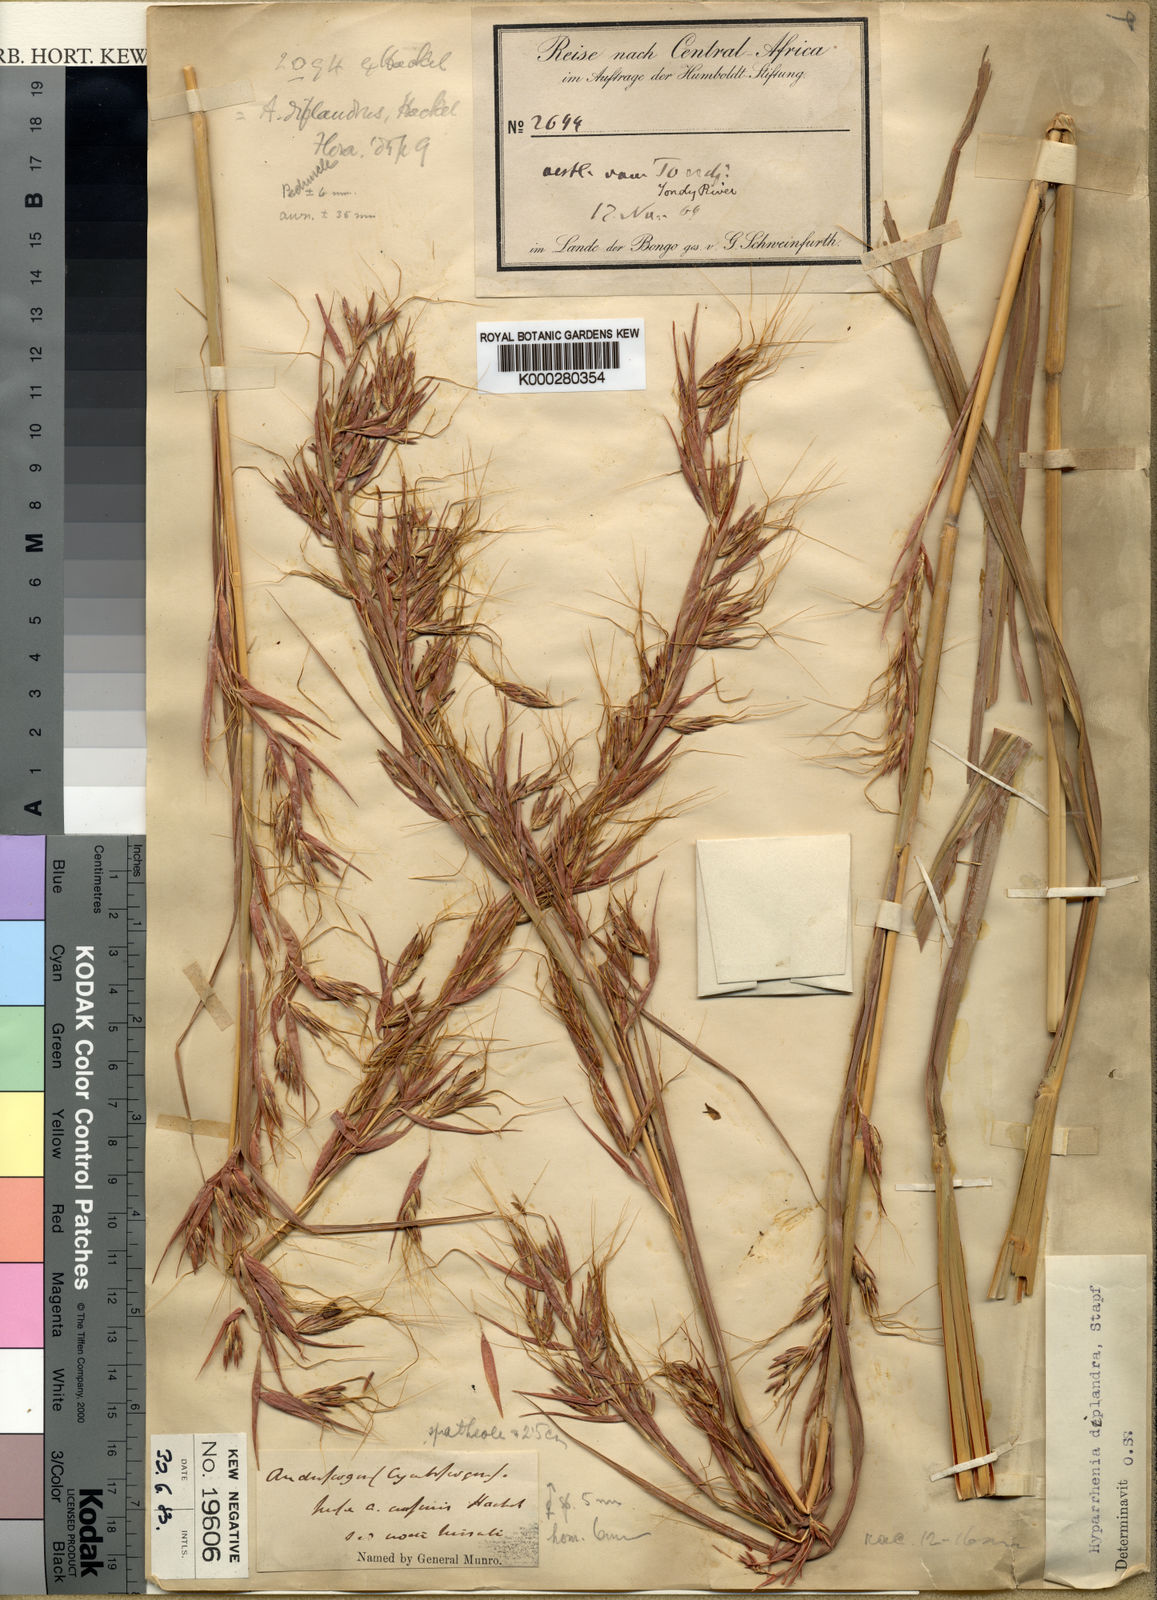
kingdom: Plantae
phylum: Tracheophyta
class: Liliopsida
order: Poales
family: Poaceae
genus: Hyparrhenia
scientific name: Hyparrhenia diplandra
